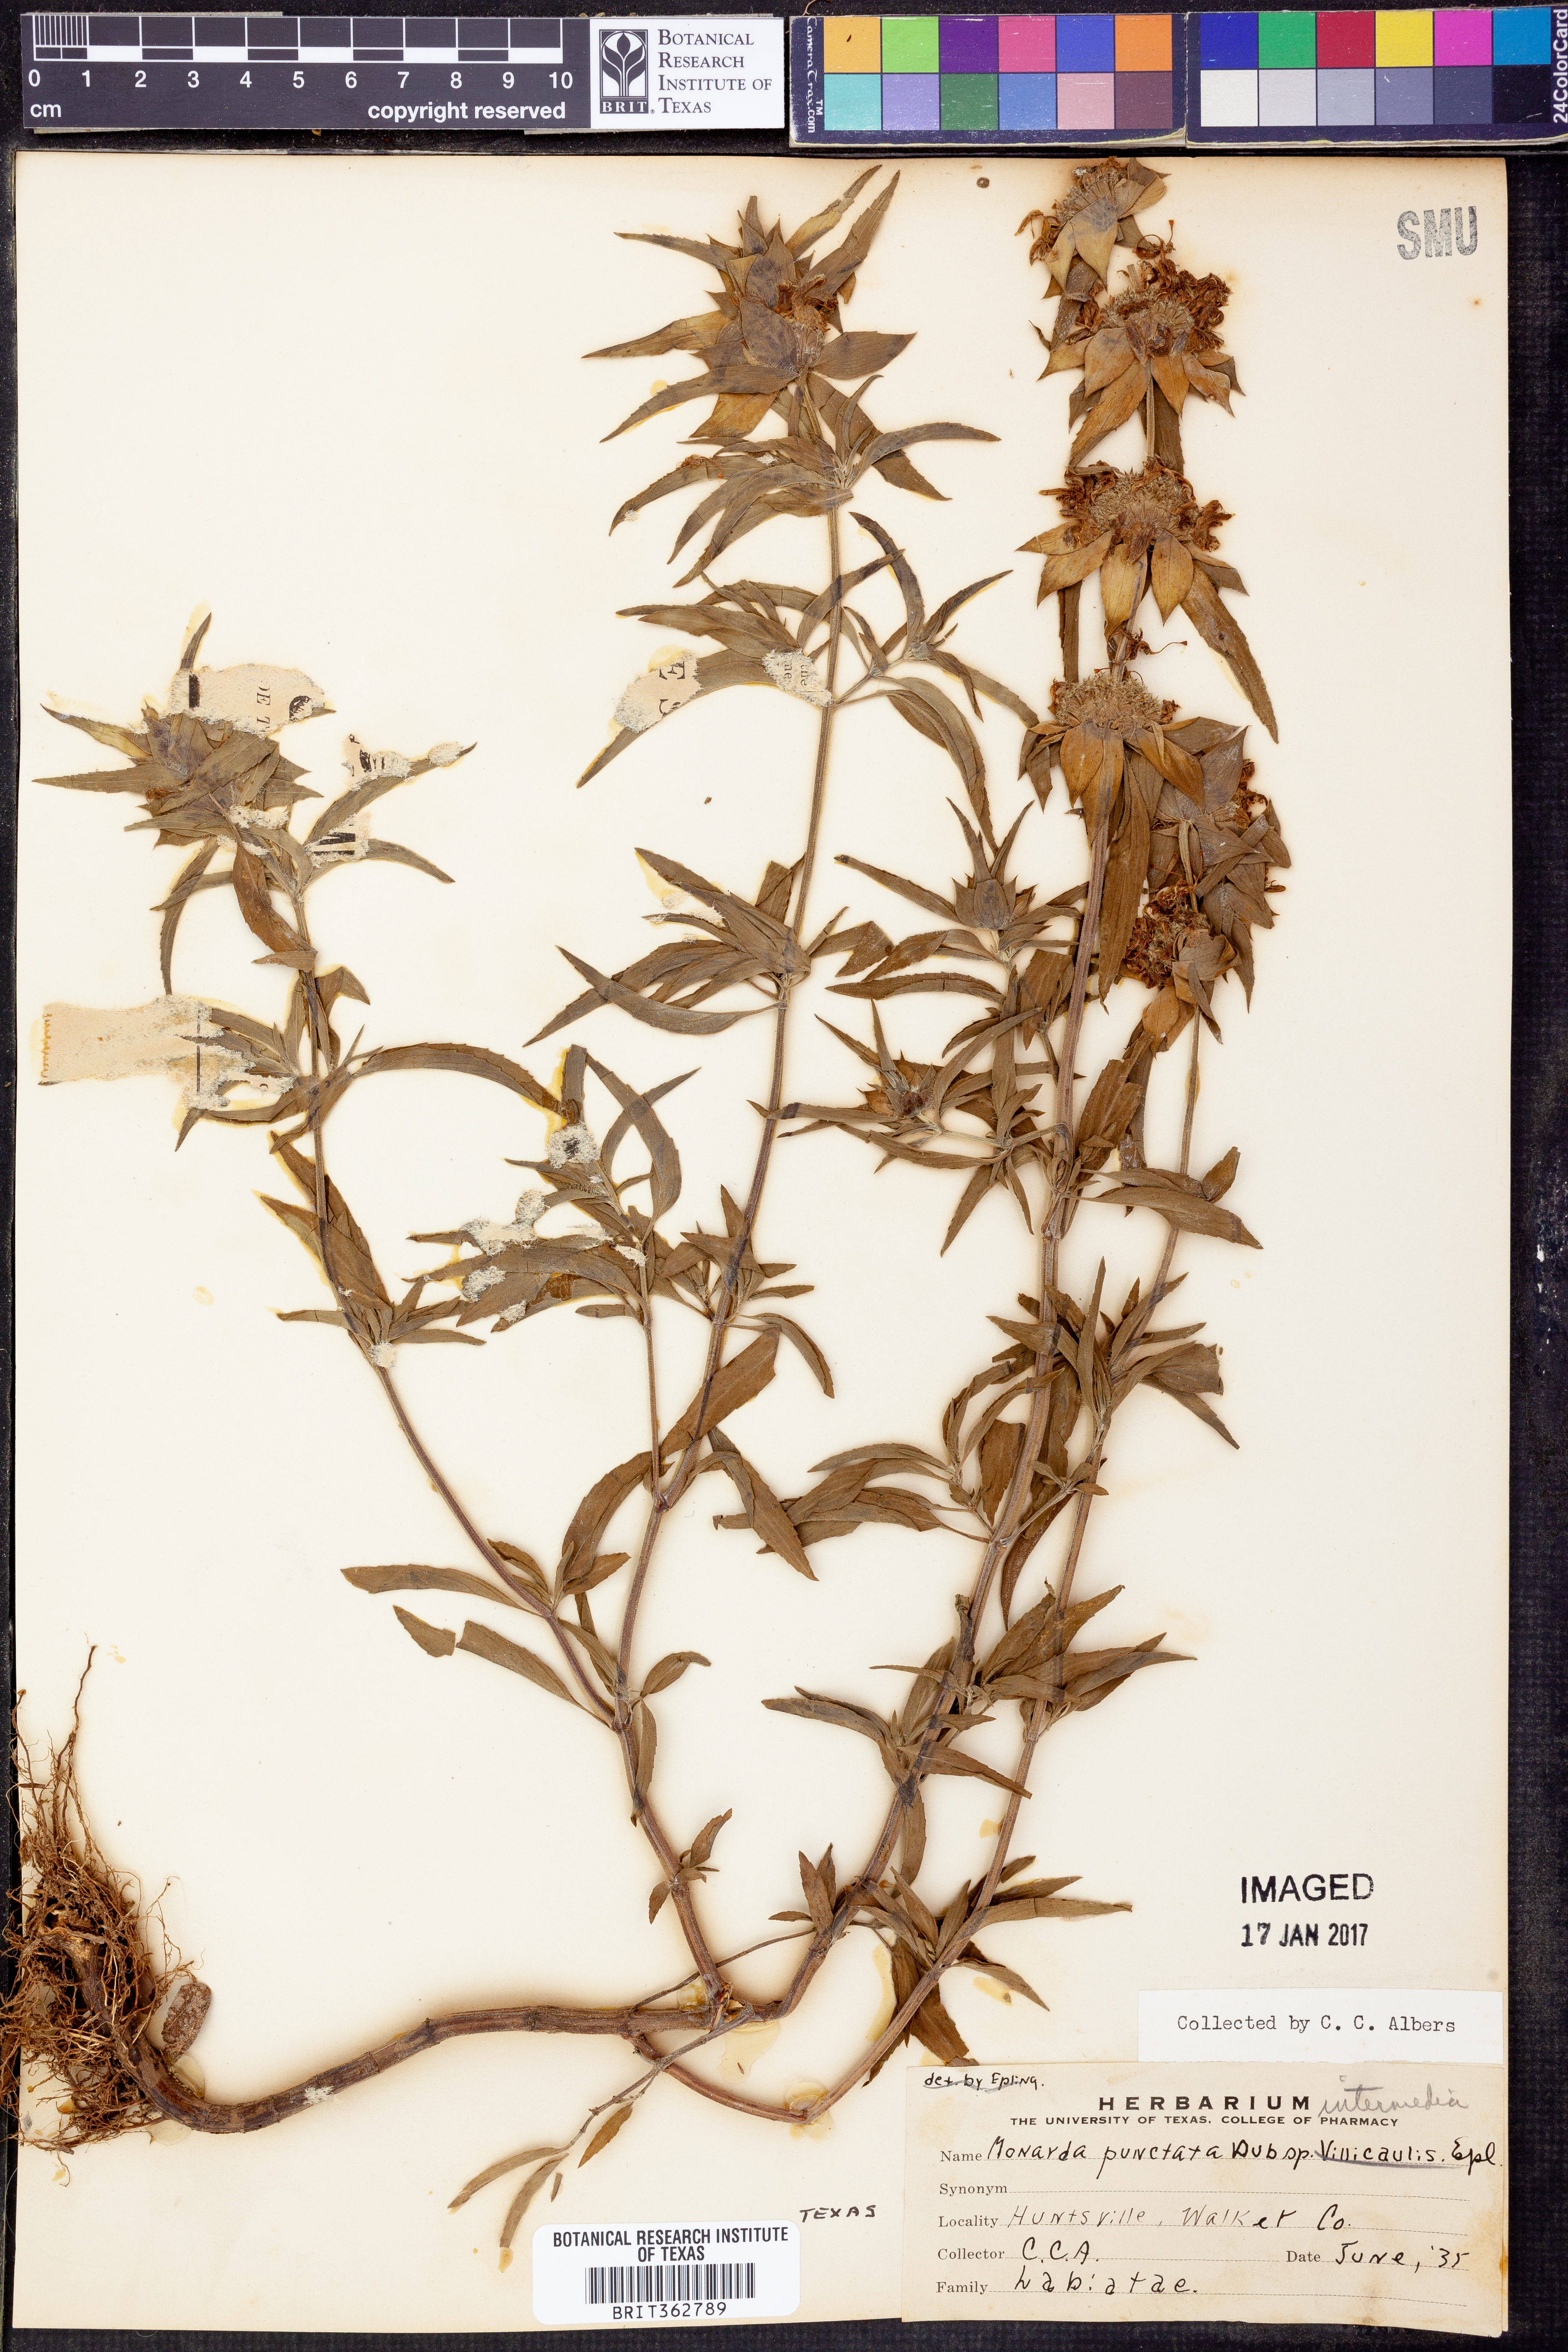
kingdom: Plantae
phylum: Tracheophyta
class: Magnoliopsida
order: Lamiales
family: Lamiaceae
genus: Monarda
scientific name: Monarda punctata
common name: Dotted monarda
